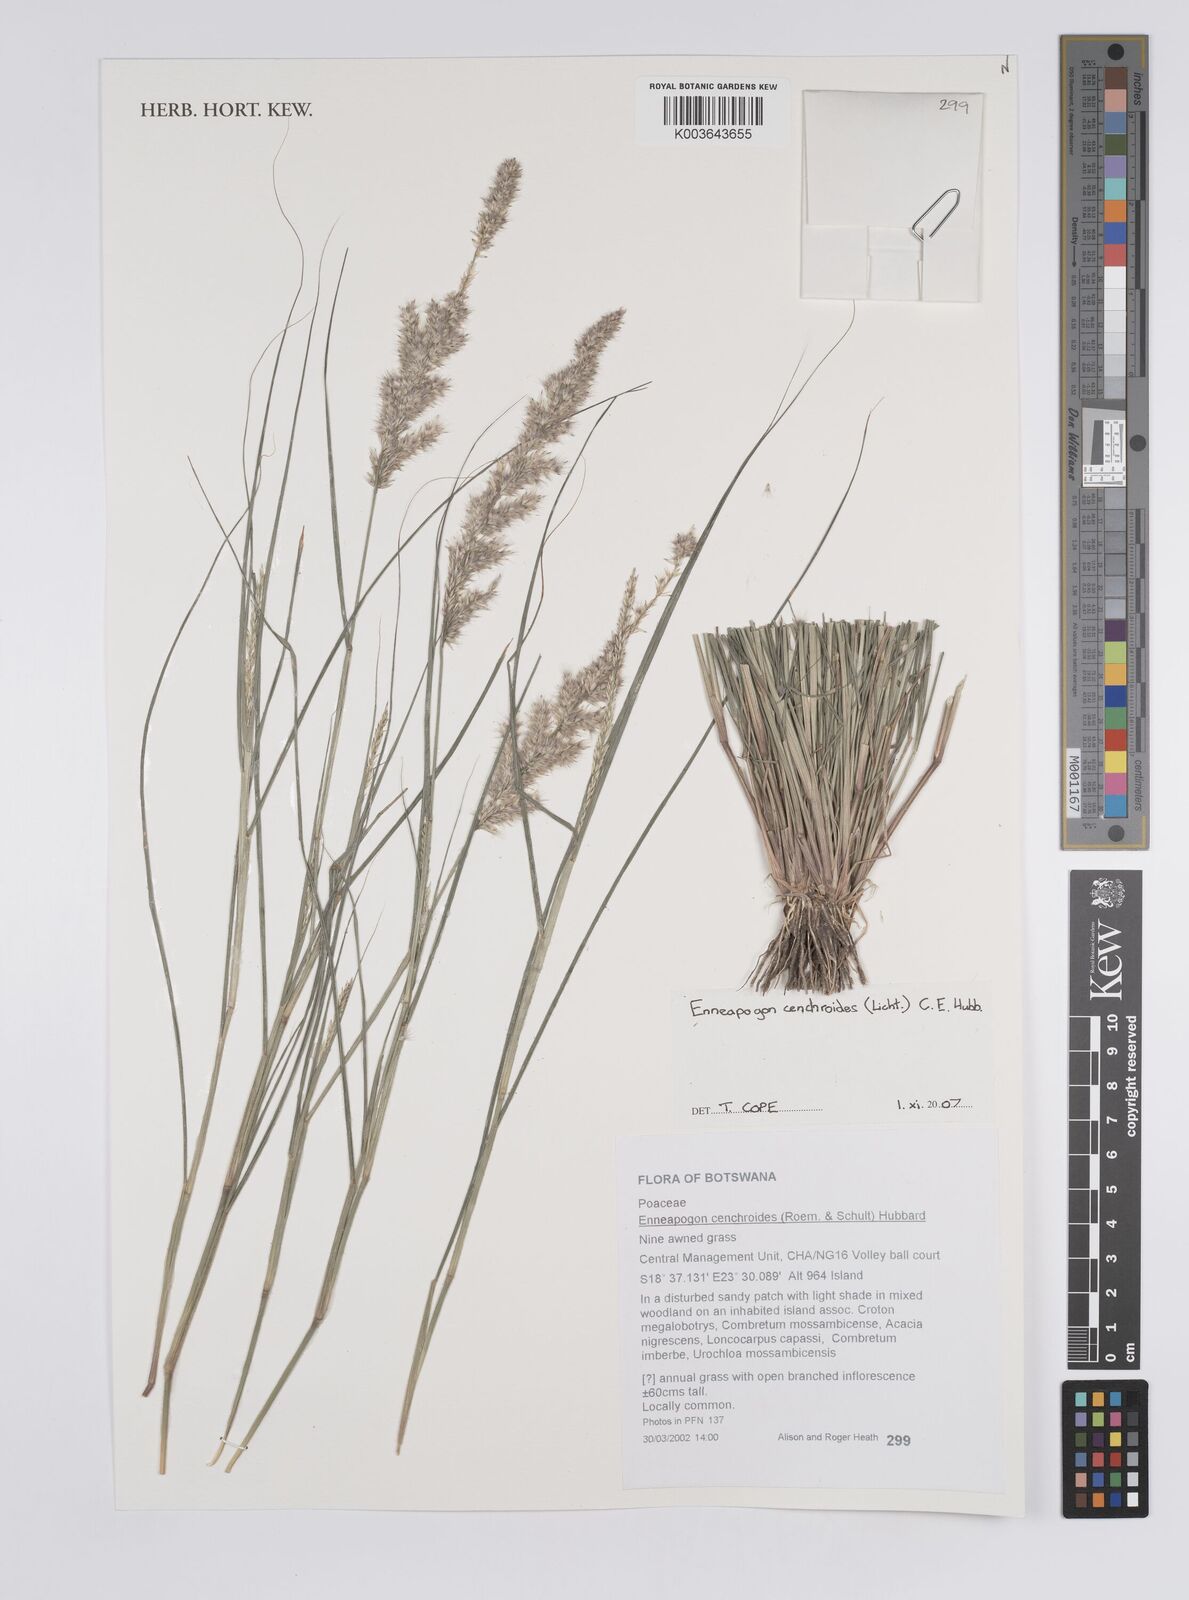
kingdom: Plantae
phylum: Tracheophyta
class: Liliopsida
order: Poales
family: Poaceae
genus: Enneapogon
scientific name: Enneapogon cenchroides
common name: Soft feather pappusgrass
